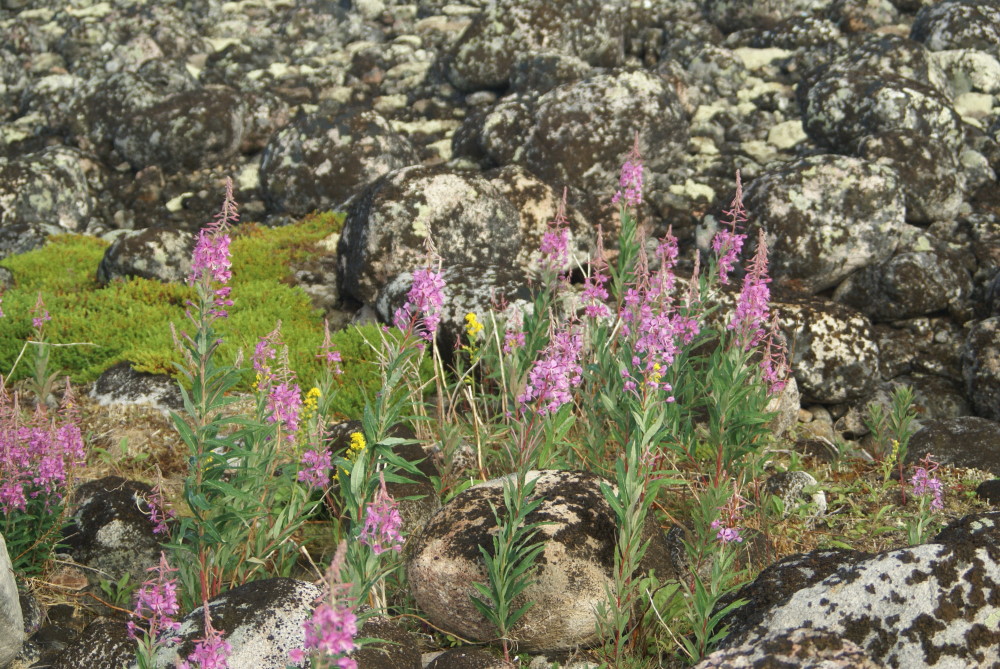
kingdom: Plantae
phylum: Tracheophyta
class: Magnoliopsida
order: Myrtales
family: Onagraceae
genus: Chamaenerion
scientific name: Chamaenerion angustifolium
